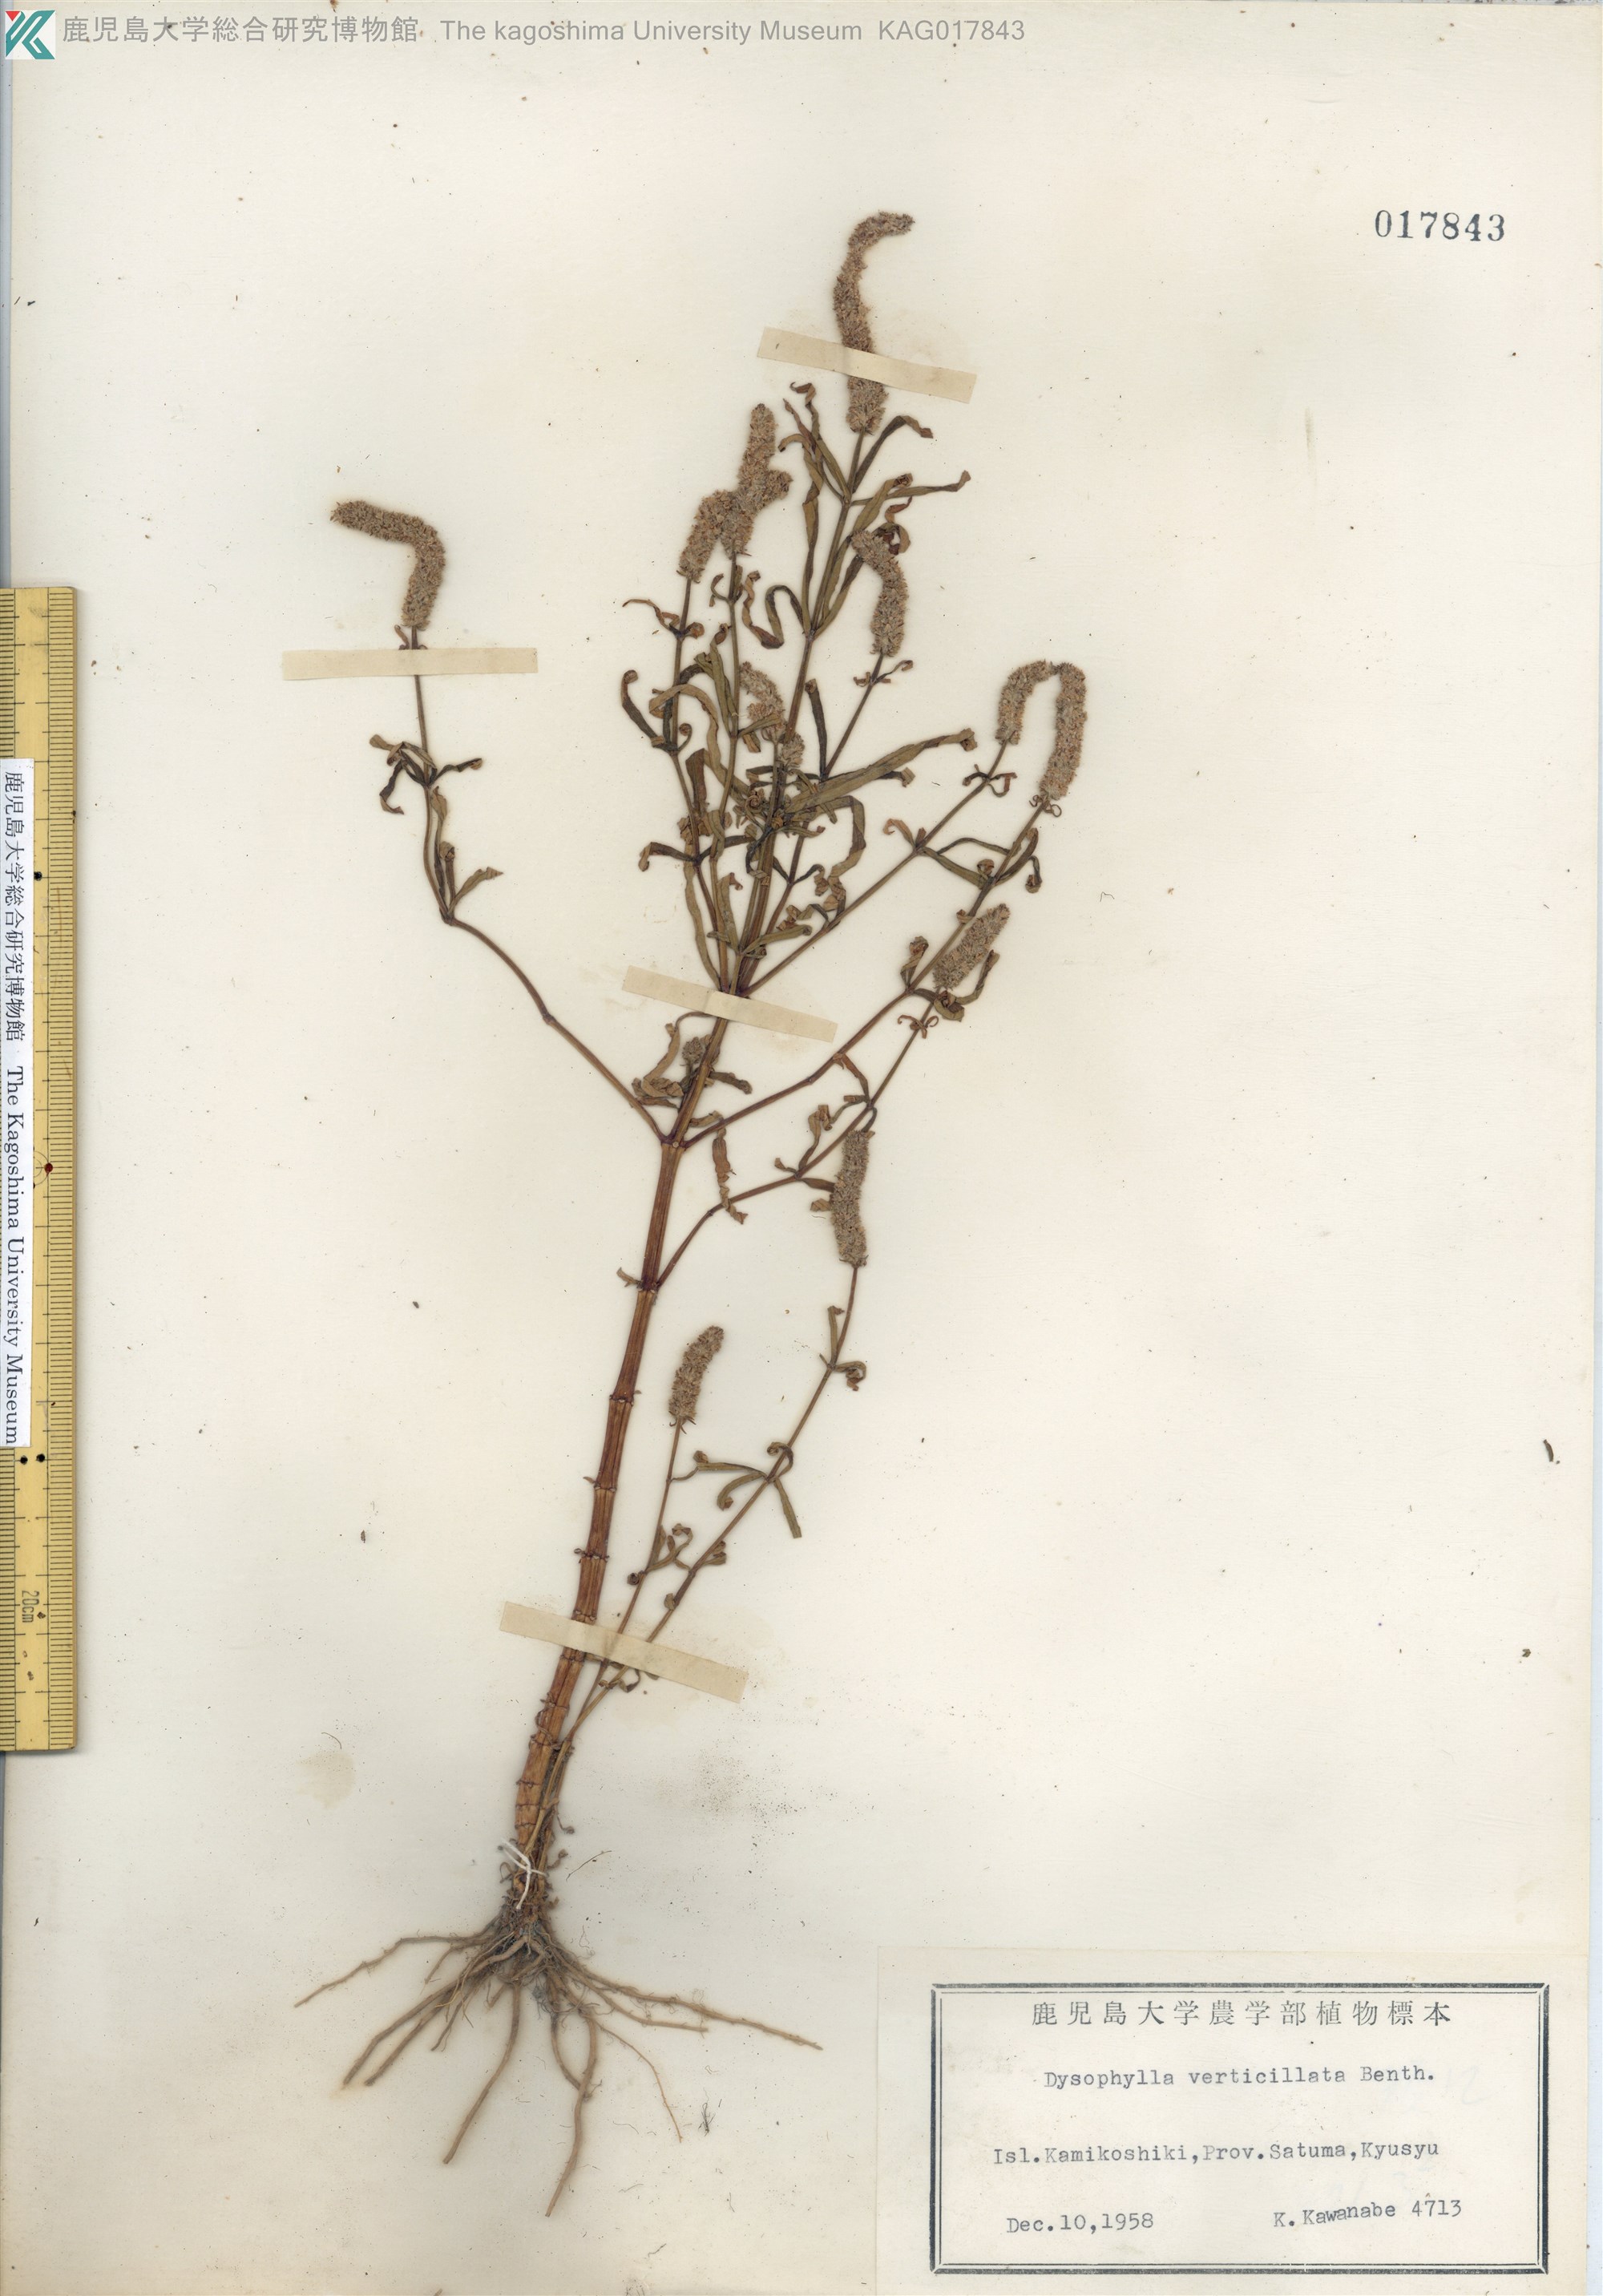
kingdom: Plantae
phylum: Tracheophyta
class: Magnoliopsida
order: Lamiales
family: Lamiaceae
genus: Pogostemon
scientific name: Pogostemon stellatus
